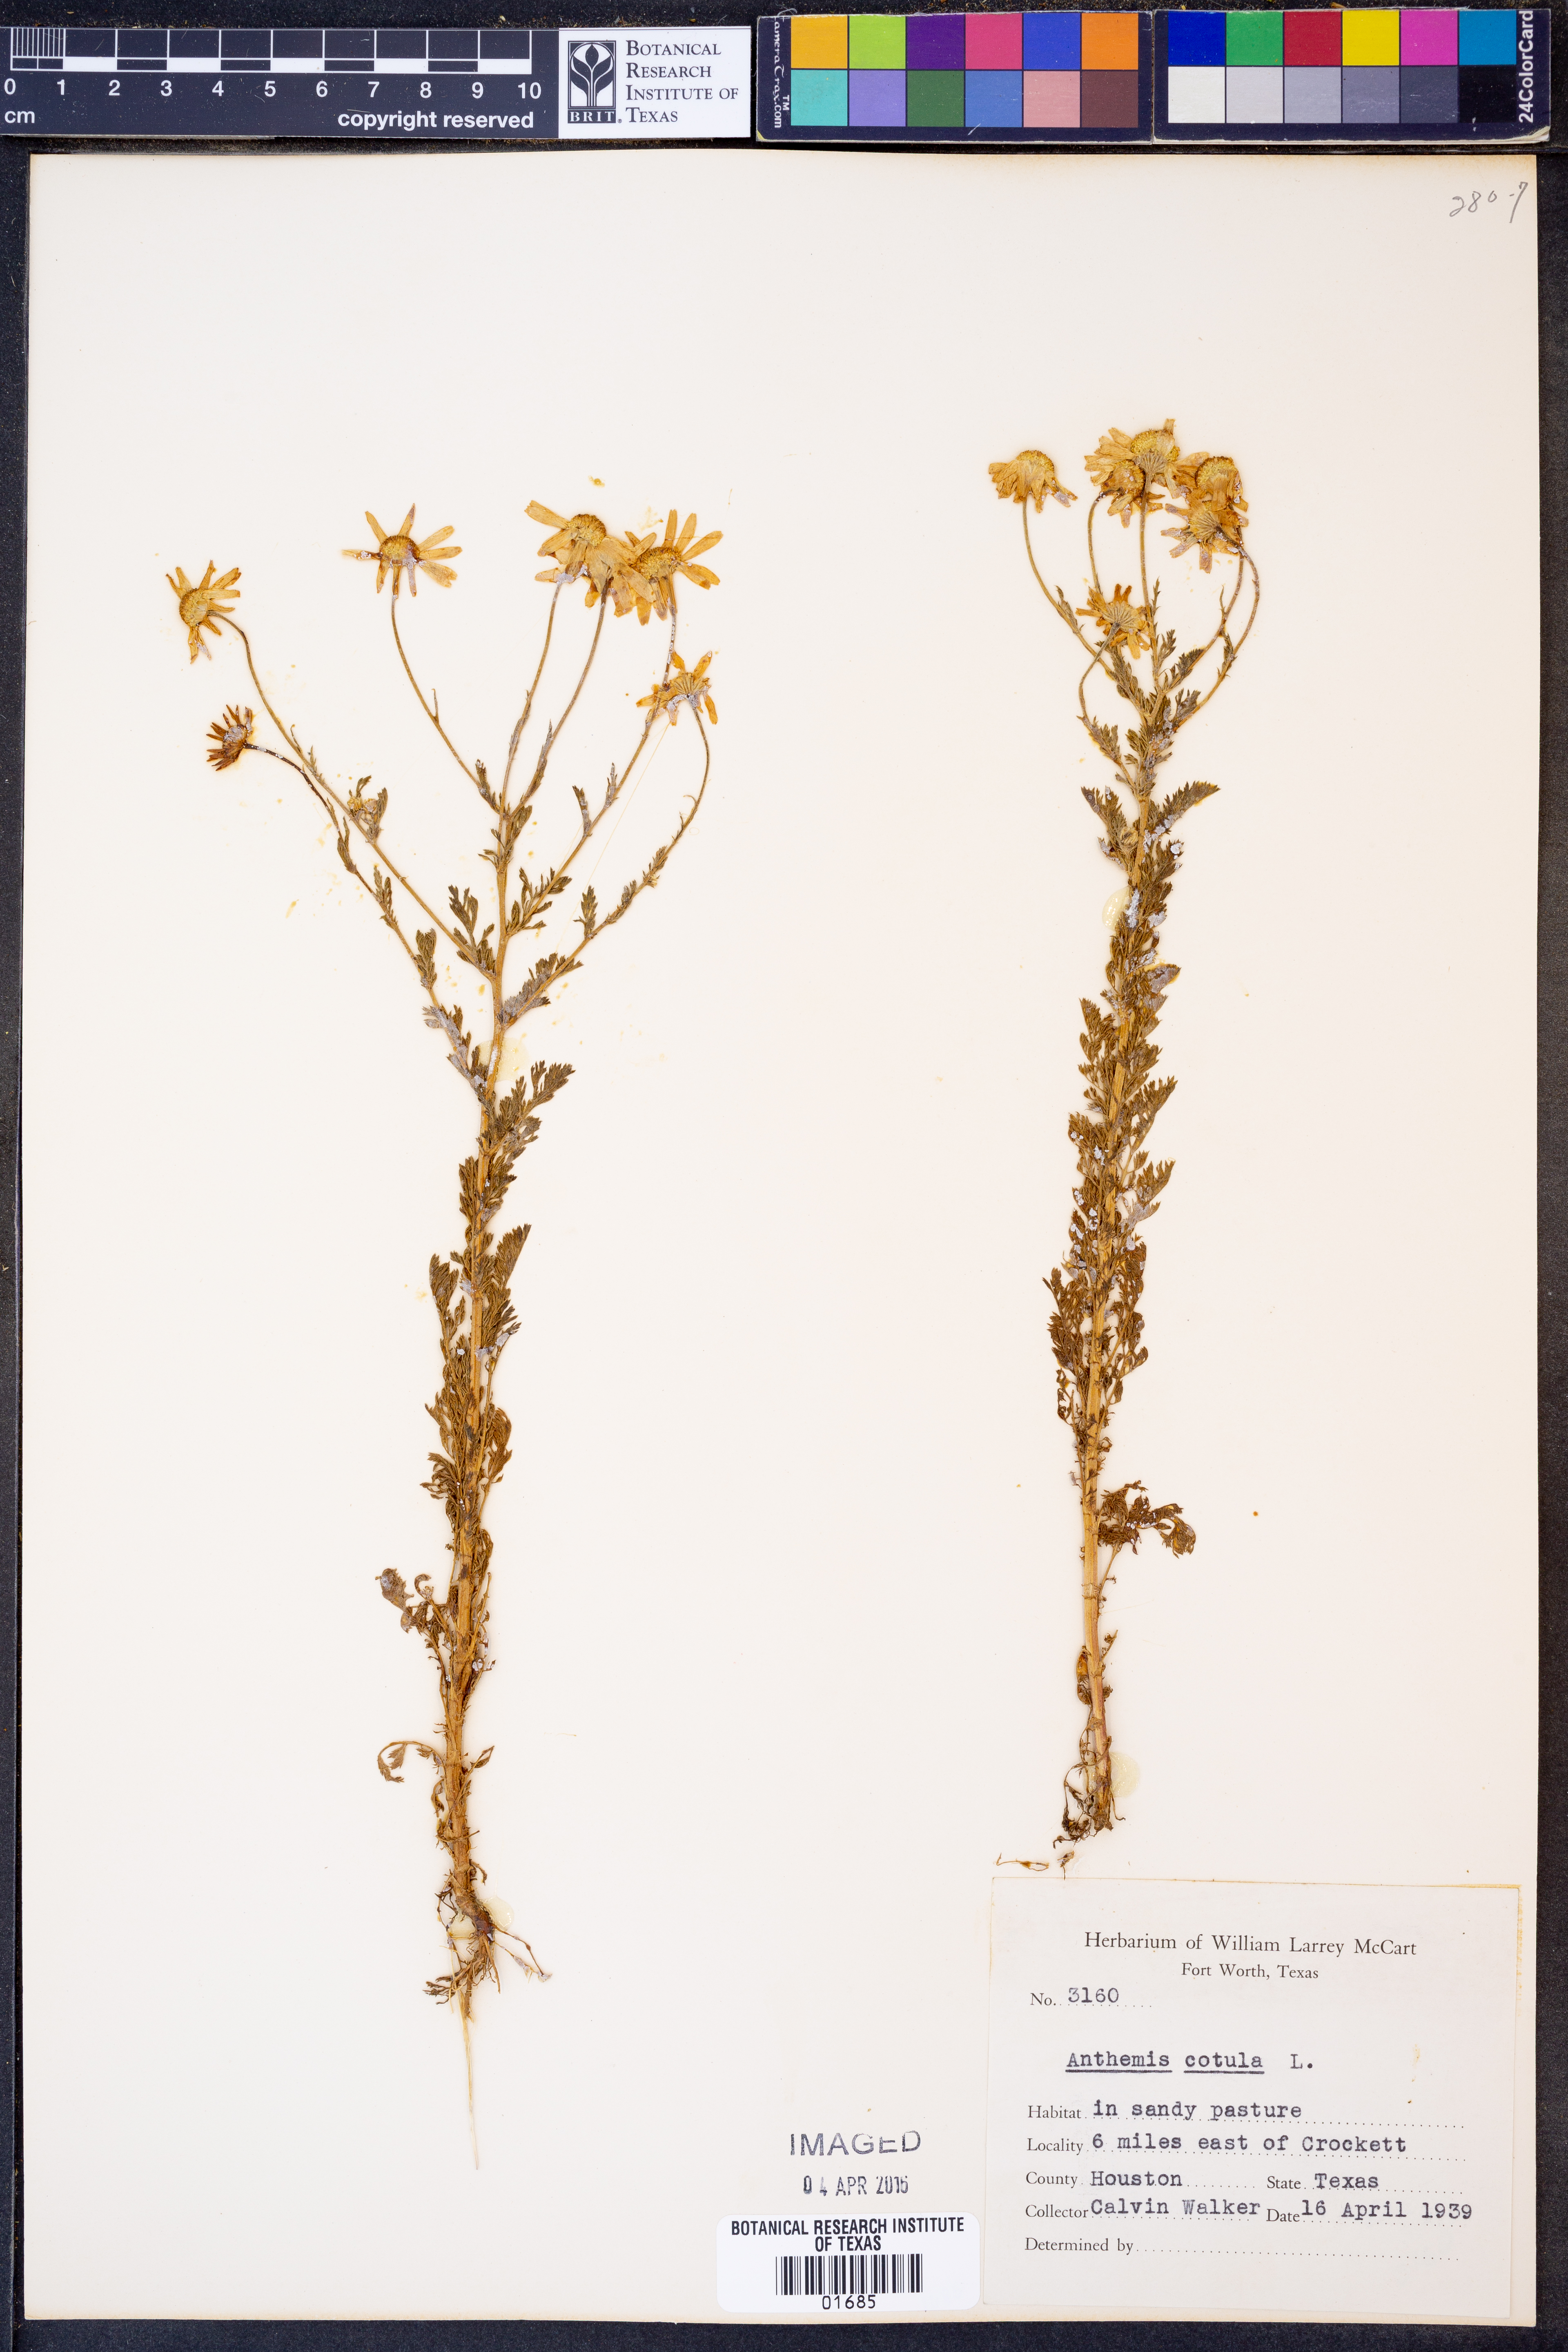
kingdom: Plantae
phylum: Tracheophyta
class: Magnoliopsida
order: Asterales
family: Asteraceae
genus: Anthemis
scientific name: Anthemis cotula
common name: Stinking chamomile
